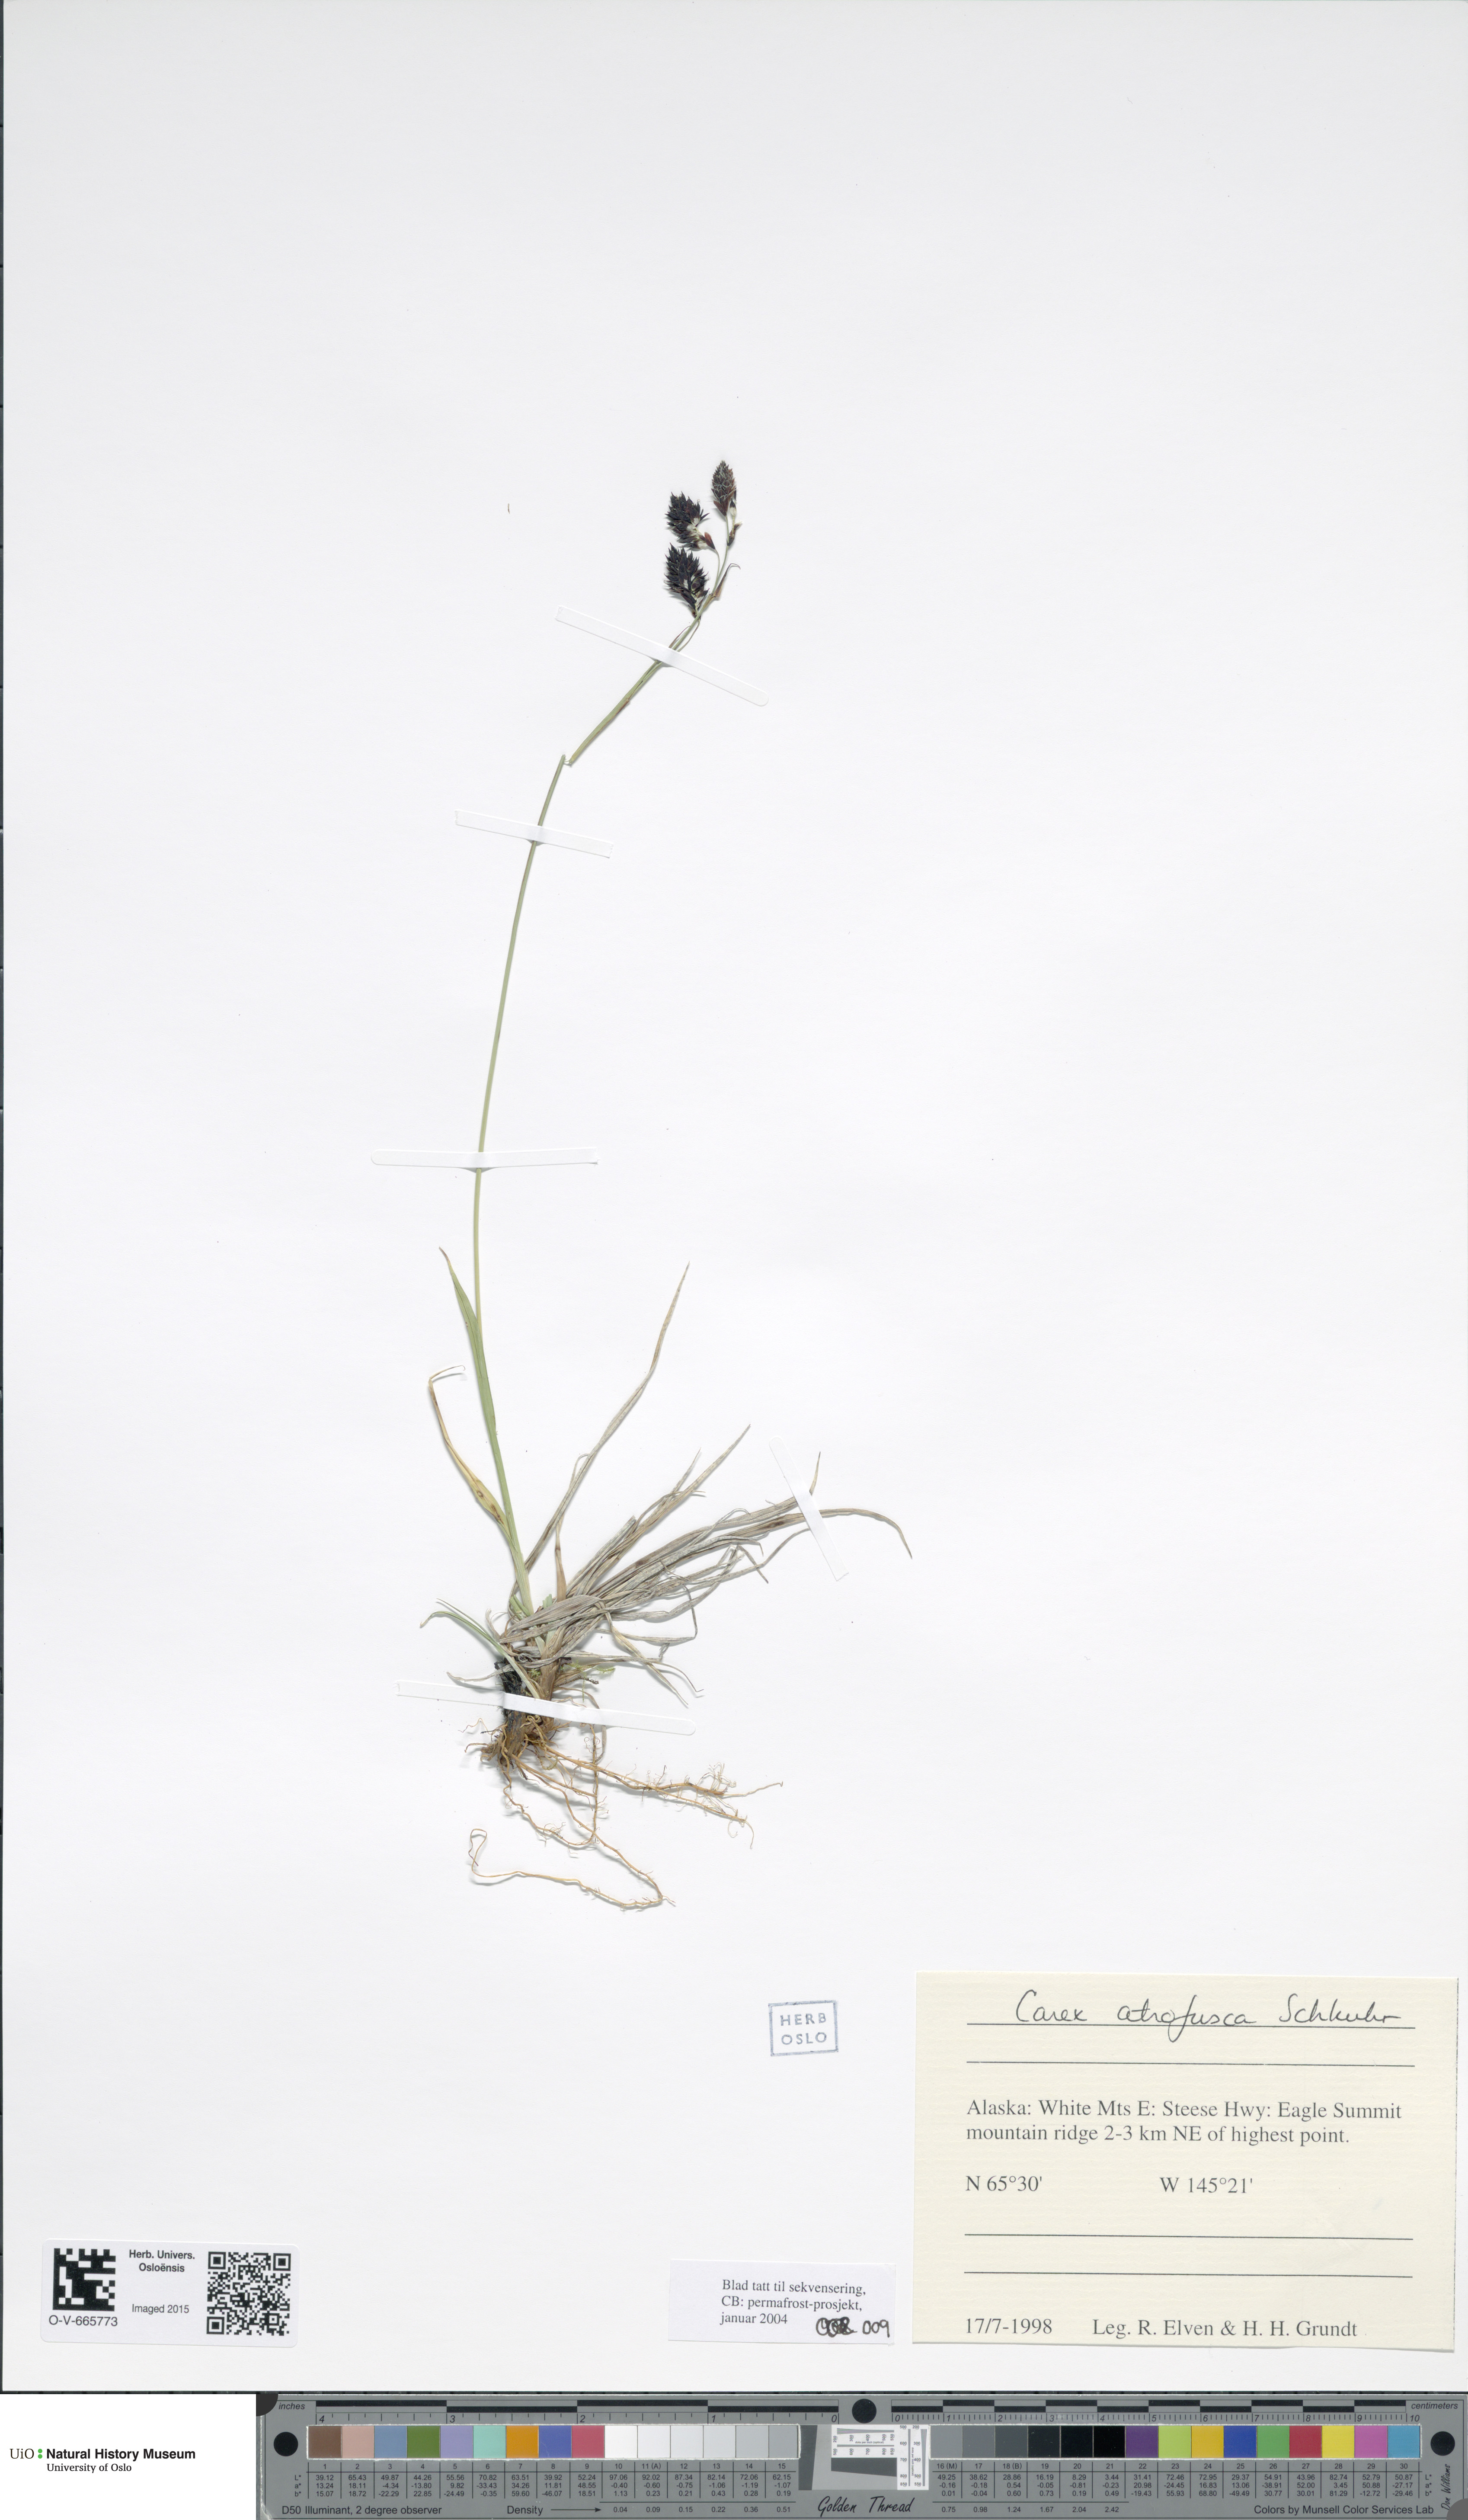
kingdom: Plantae
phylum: Tracheophyta
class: Liliopsida
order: Poales
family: Cyperaceae
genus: Carex
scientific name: Carex atrofusca
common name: Scorched alpine-sedge
